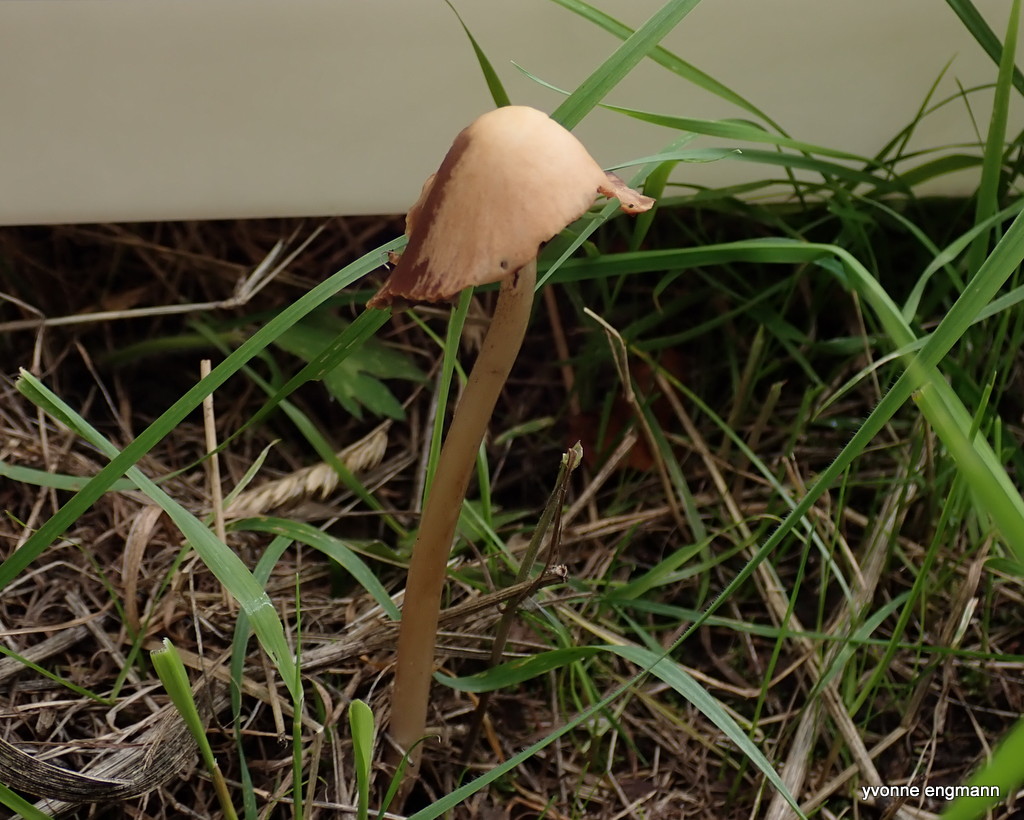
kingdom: Fungi
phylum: Basidiomycota
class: Agaricomycetes
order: Agaricales
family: Psathyrellaceae
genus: Parasola
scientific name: Parasola conopilea
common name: kegle-hjulhat
